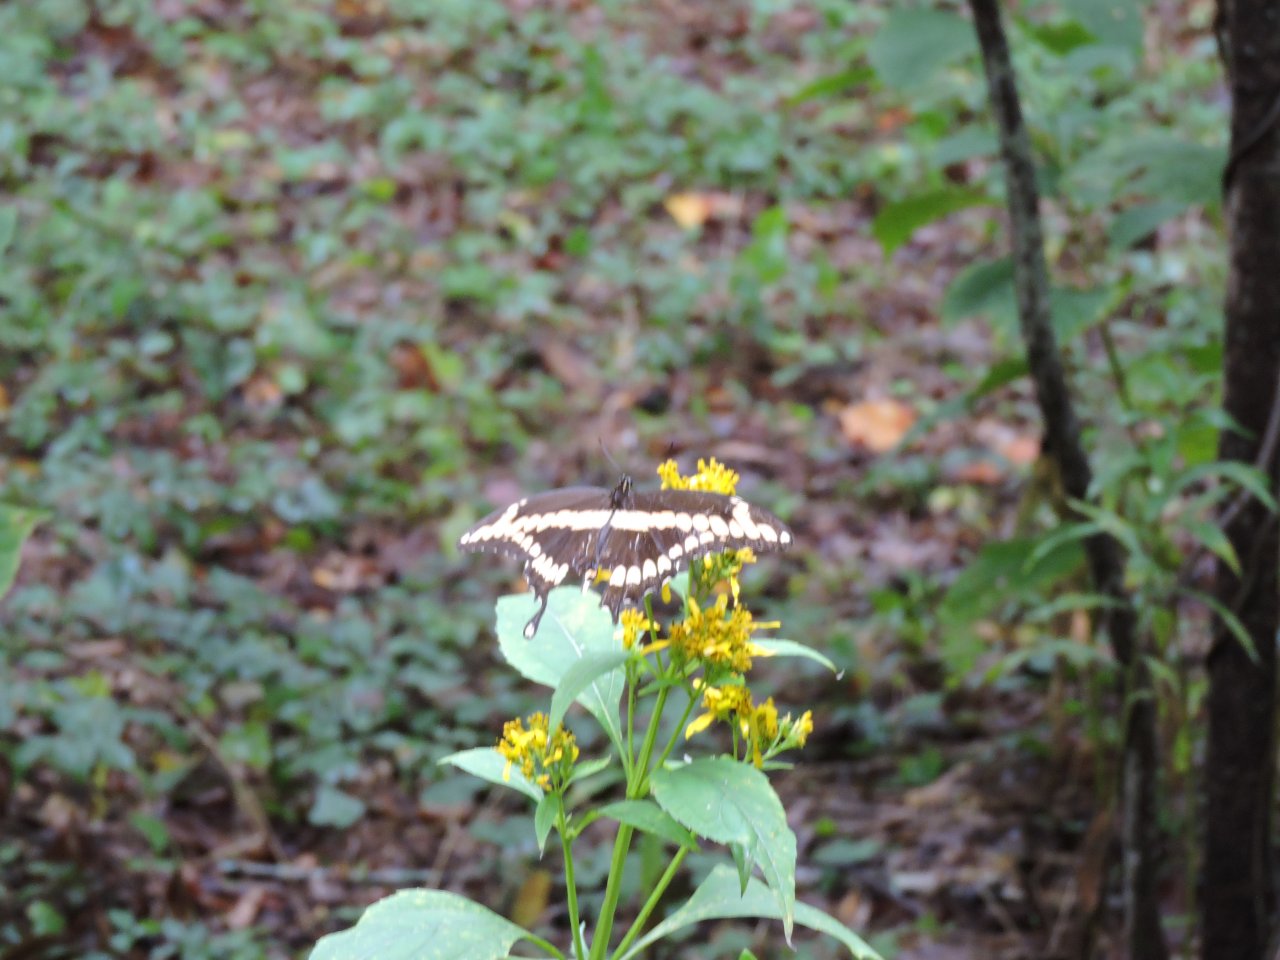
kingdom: Animalia
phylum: Arthropoda
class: Insecta
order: Lepidoptera
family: Papilionidae
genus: Papilio
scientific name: Papilio cresphontes
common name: Eastern Giant Swallowtail
